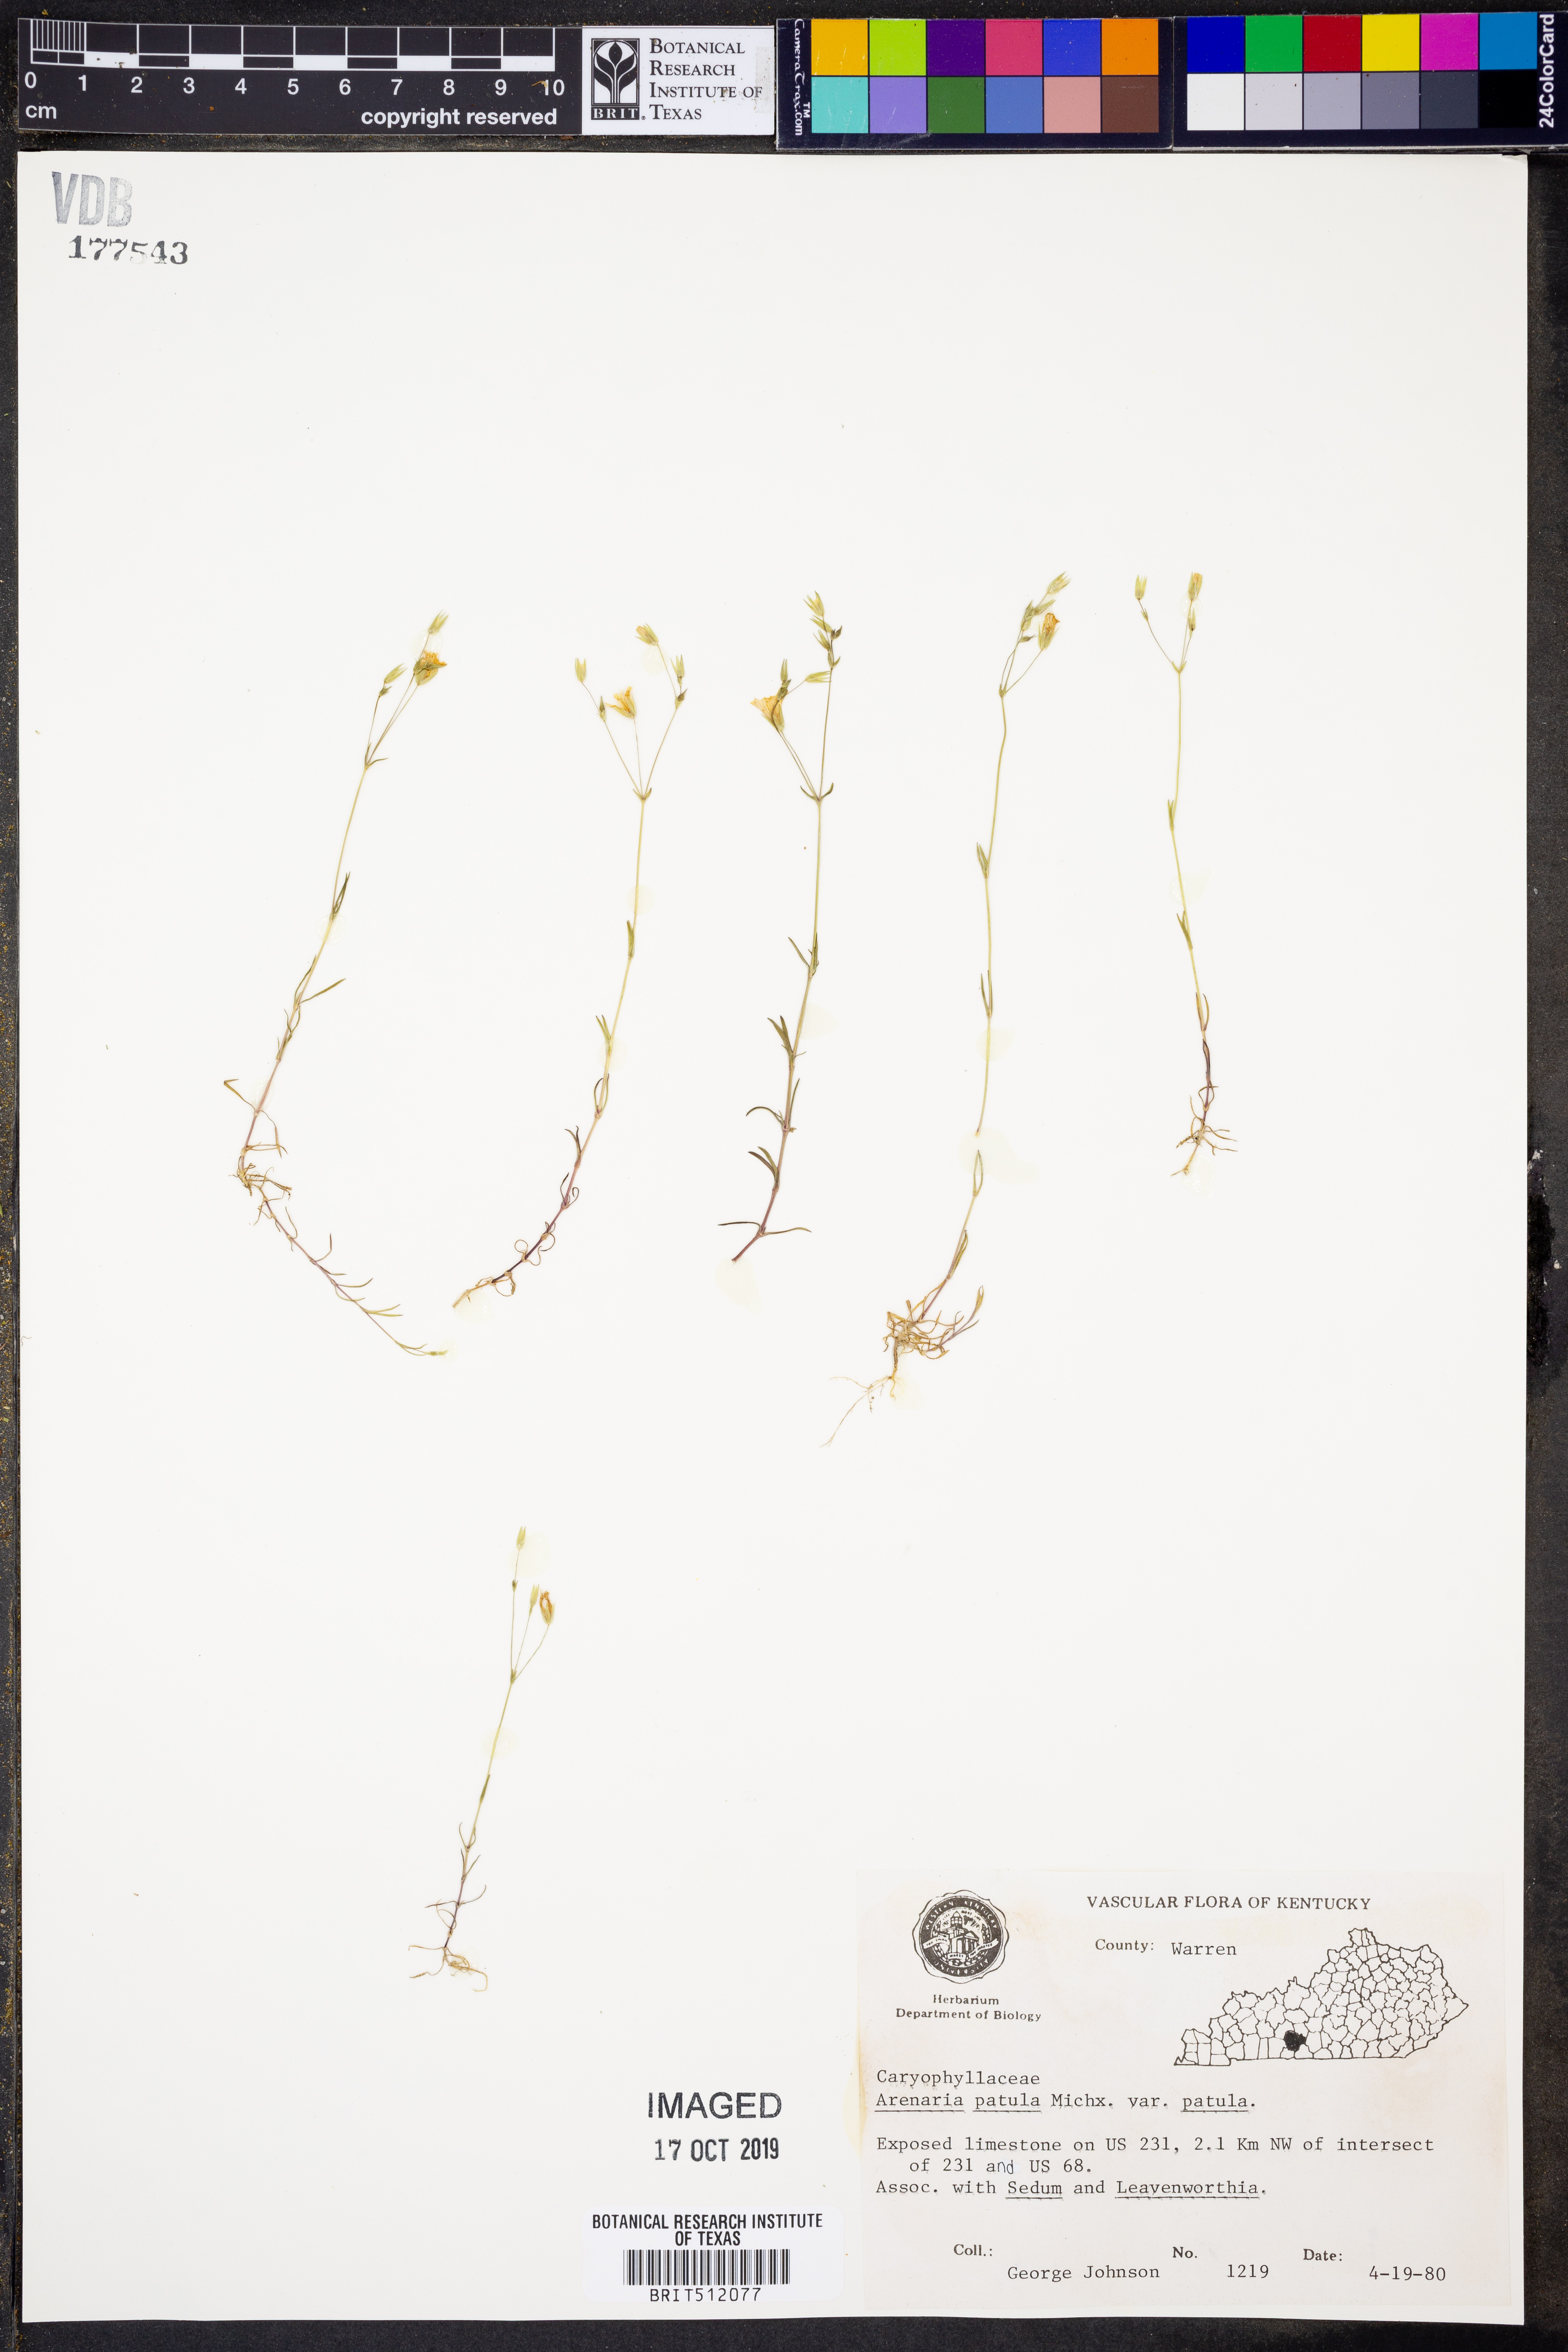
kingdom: Plantae
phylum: Tracheophyta
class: Magnoliopsida
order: Caryophyllales
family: Caryophyllaceae
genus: Mononeuria
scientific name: Mononeuria patula
